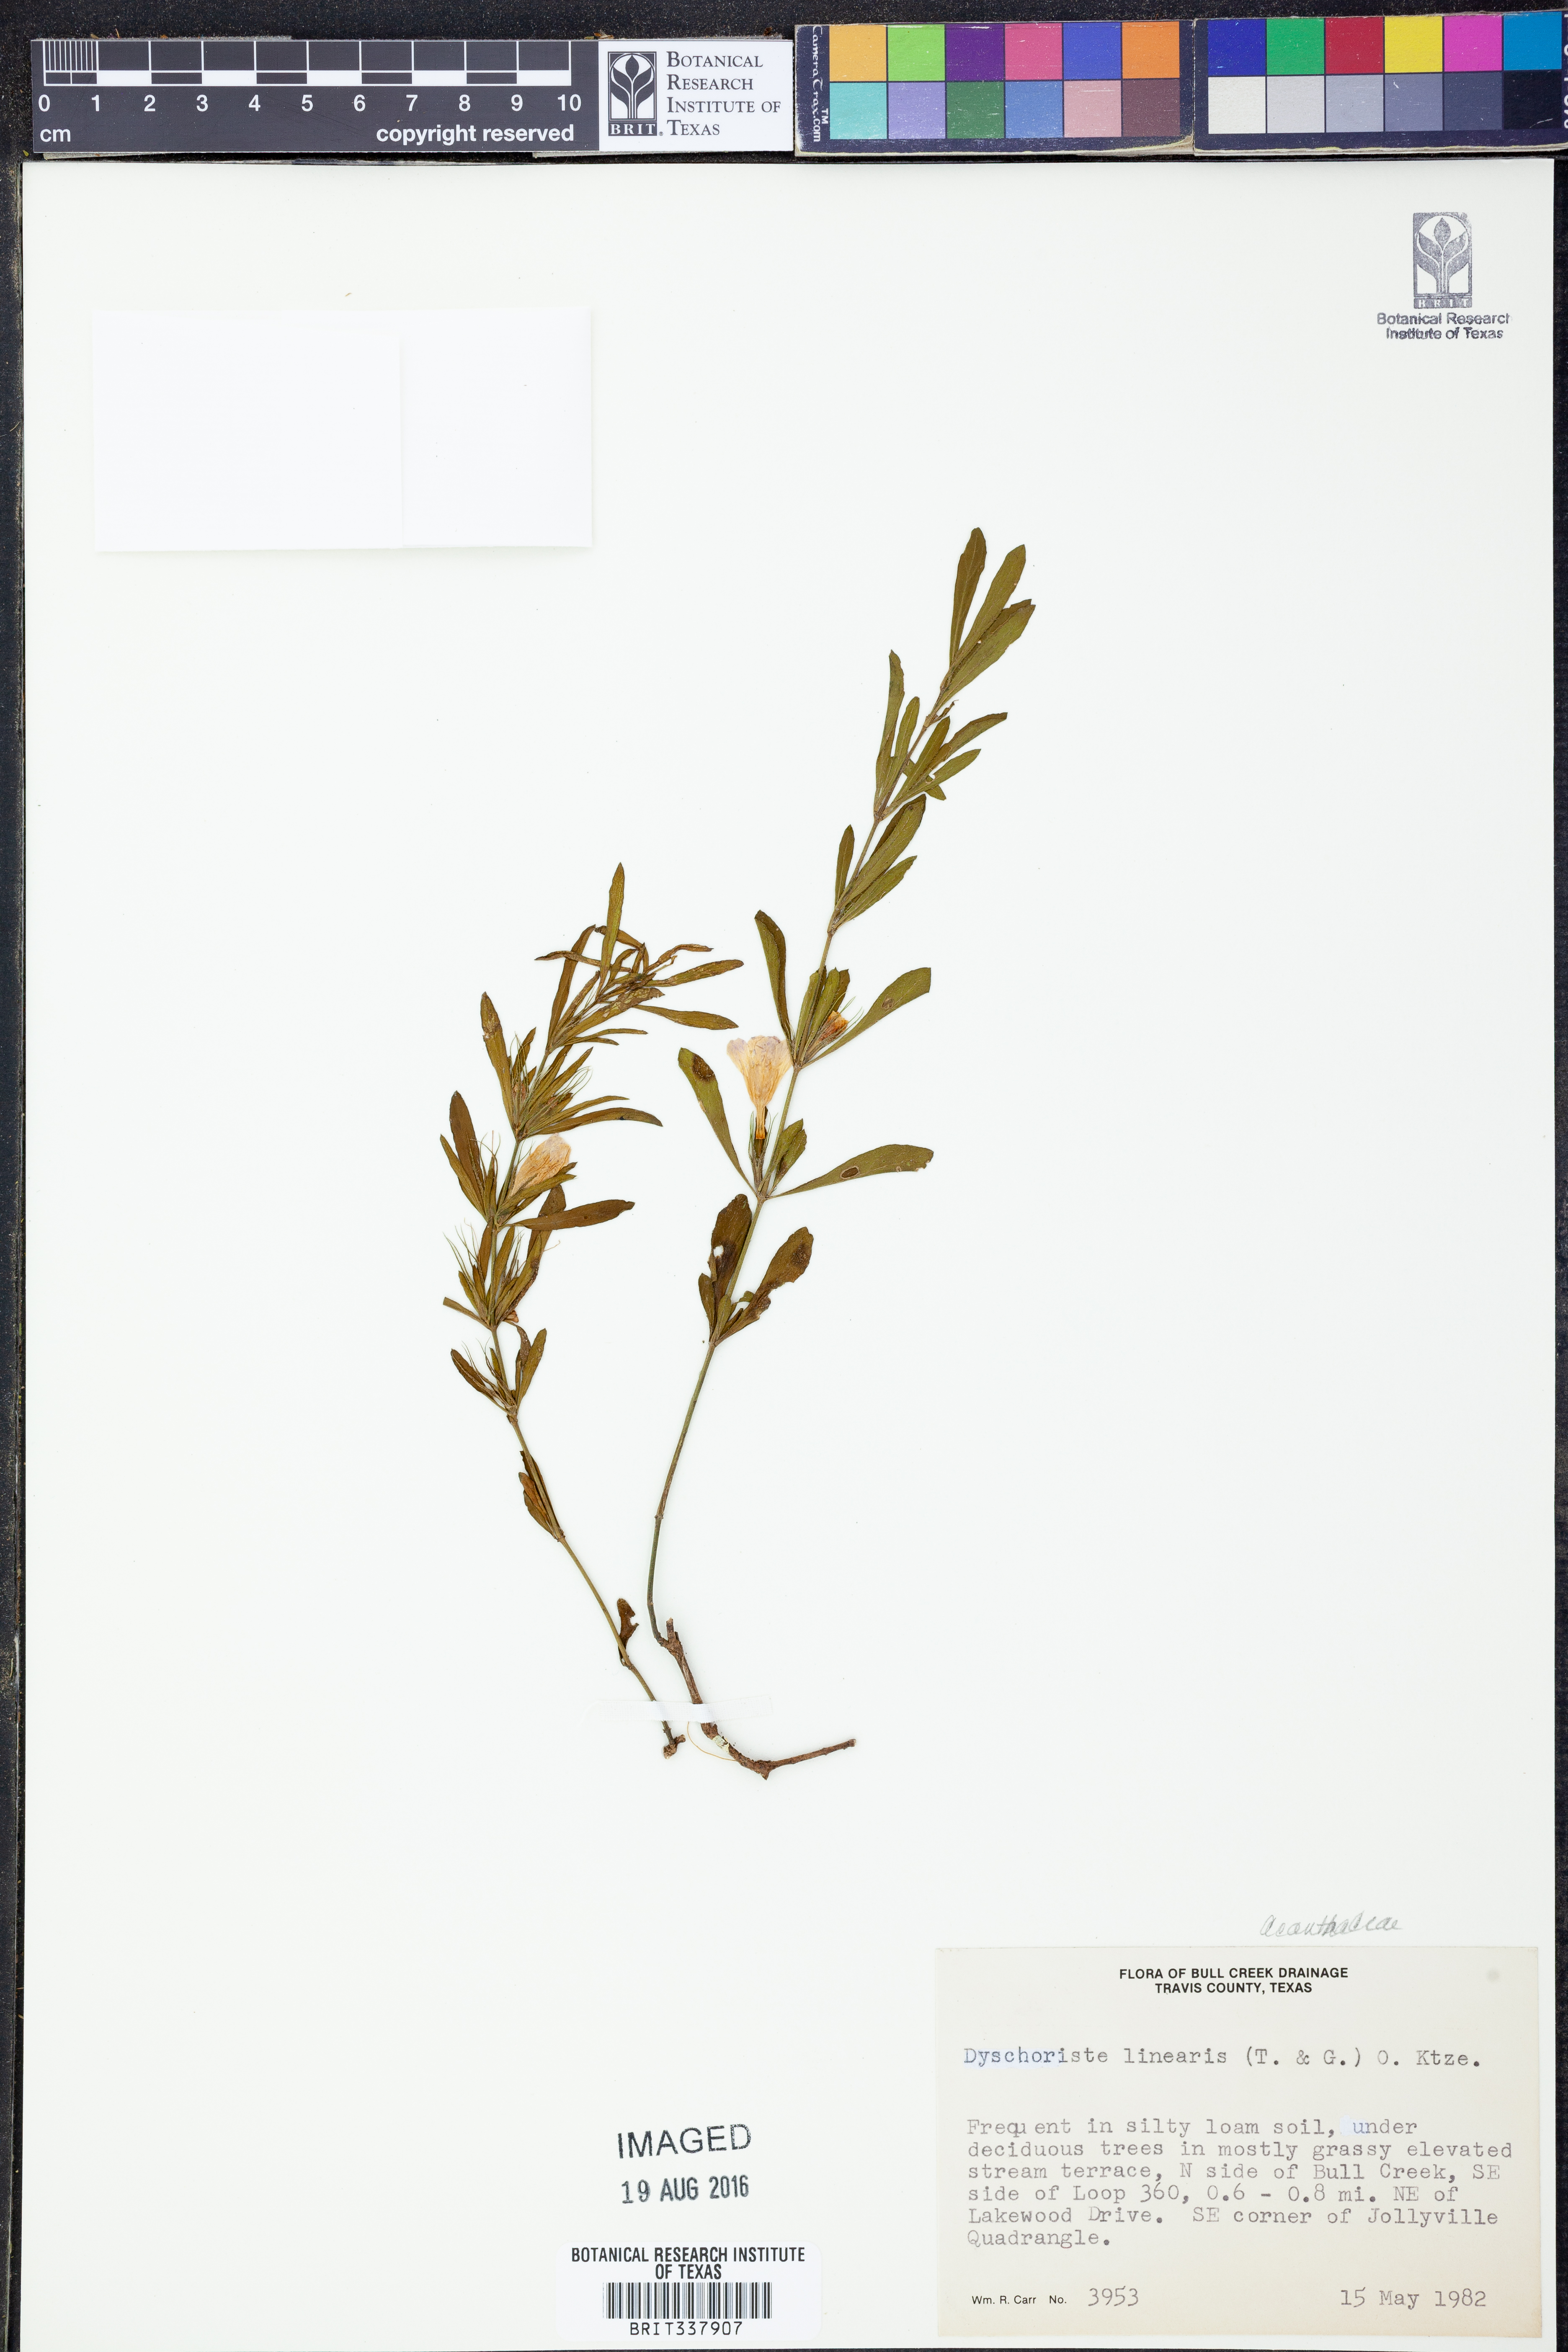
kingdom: Plantae
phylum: Tracheophyta
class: Magnoliopsida
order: Lamiales
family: Acanthaceae
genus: Dyschoriste
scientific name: Dyschoriste linearis
